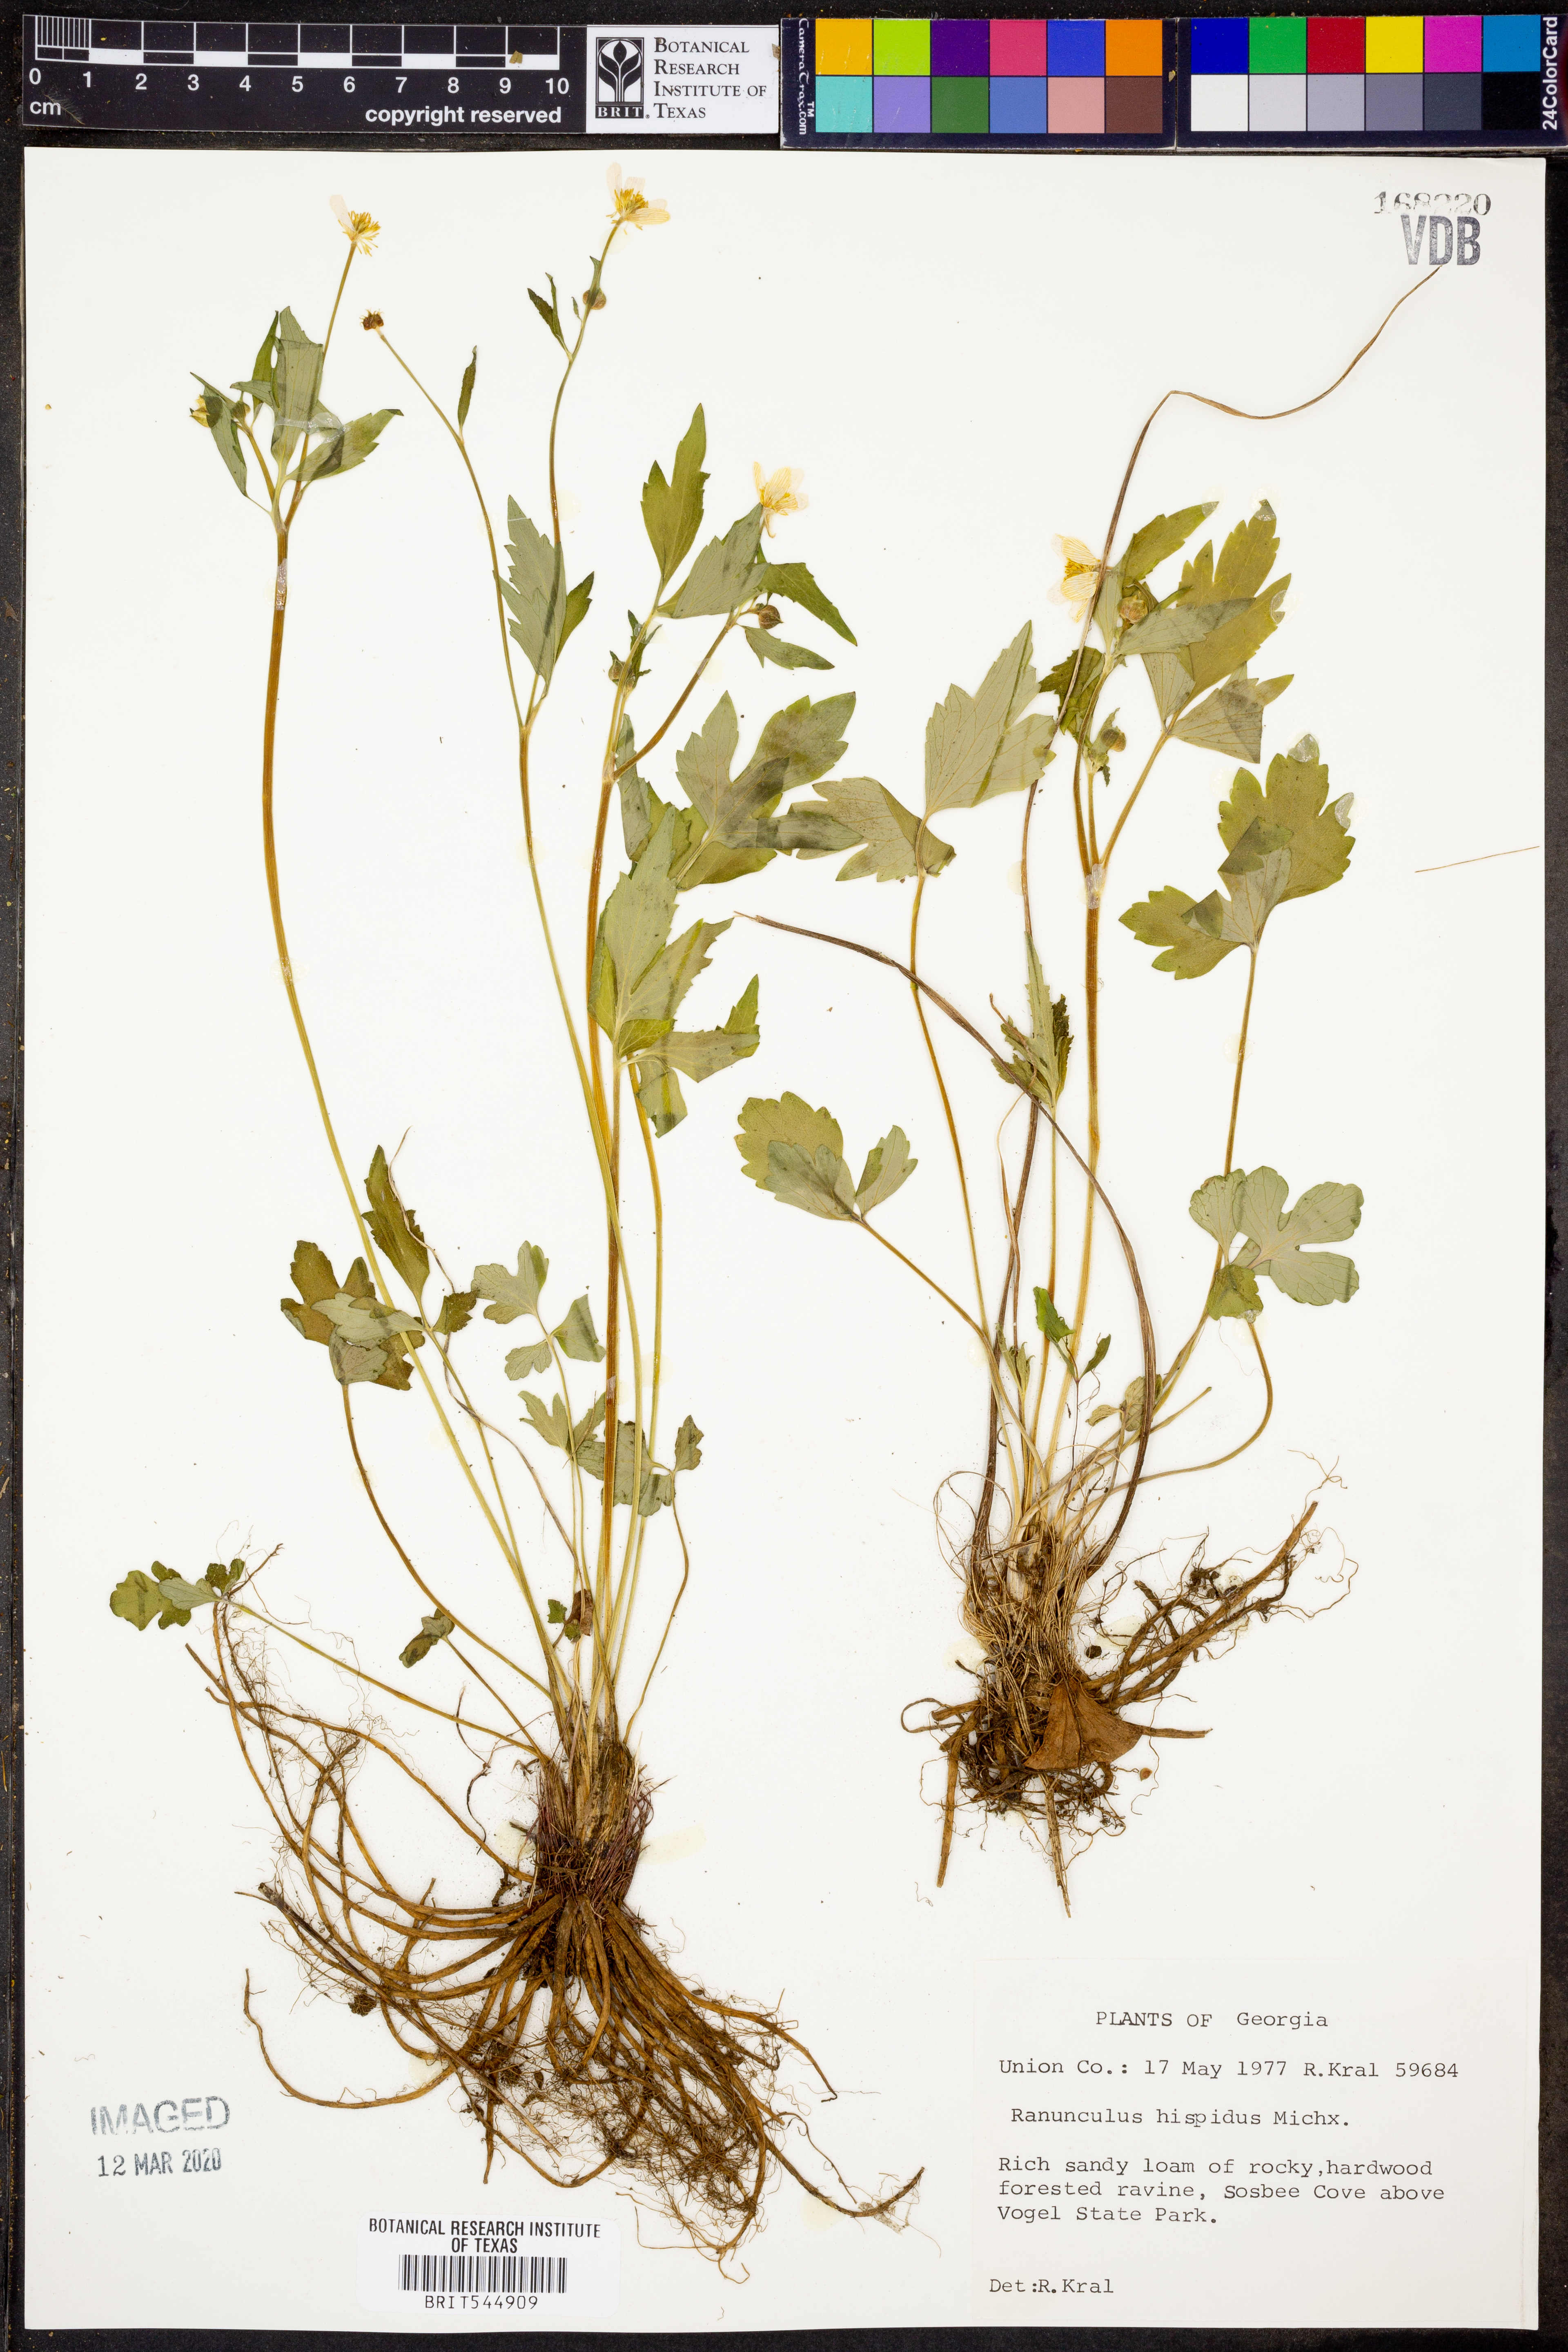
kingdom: Plantae
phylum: Tracheophyta
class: Magnoliopsida
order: Ranunculales
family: Ranunculaceae
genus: Ranunculus
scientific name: Ranunculus hispidus
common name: Bristly buttercup
